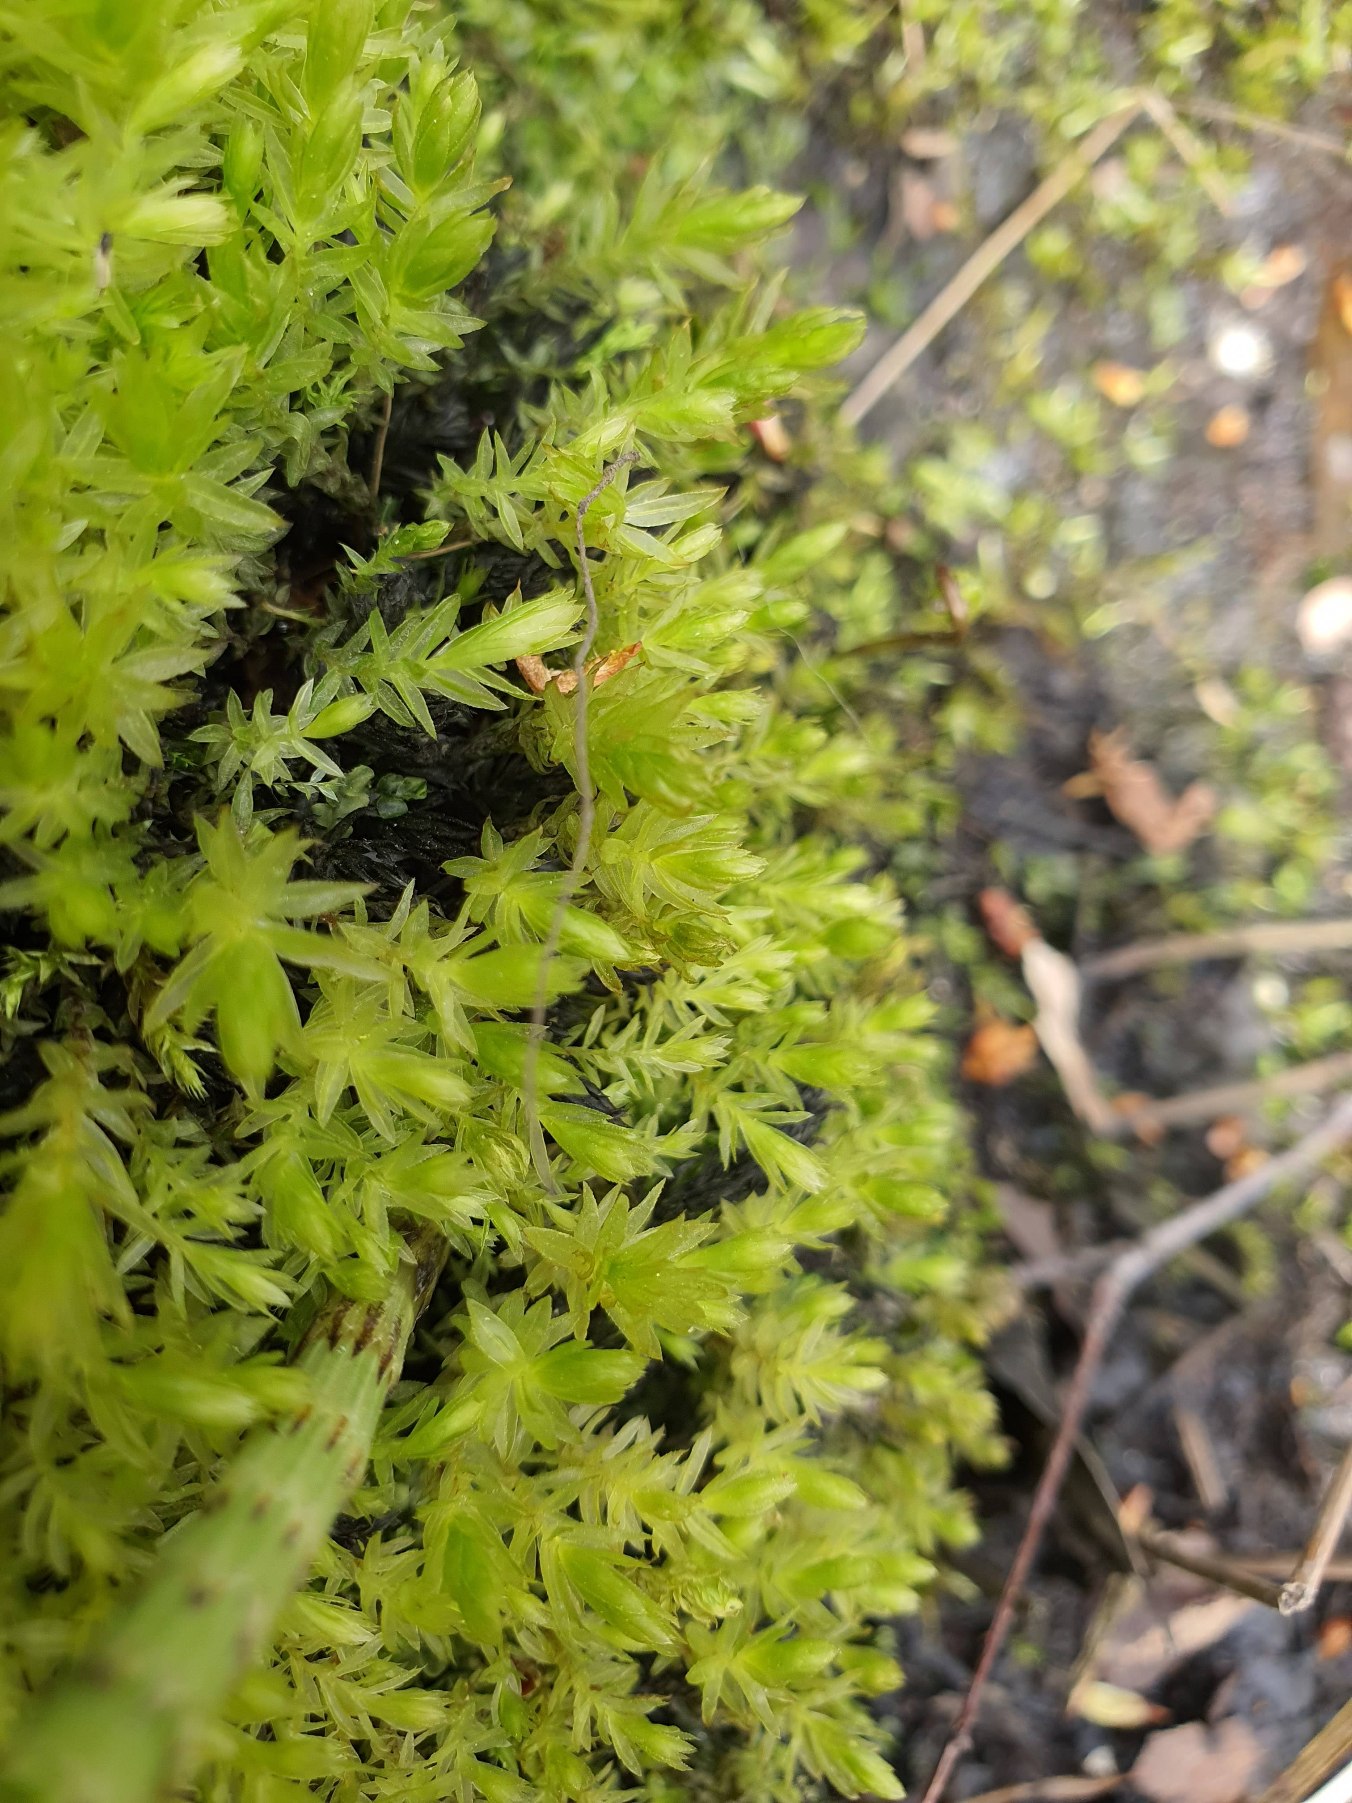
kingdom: Plantae
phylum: Bryophyta
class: Bryopsida
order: Bryales
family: Mniaceae
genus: Mnium
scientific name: Mnium hornum
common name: Brunfiltet stjernemos
